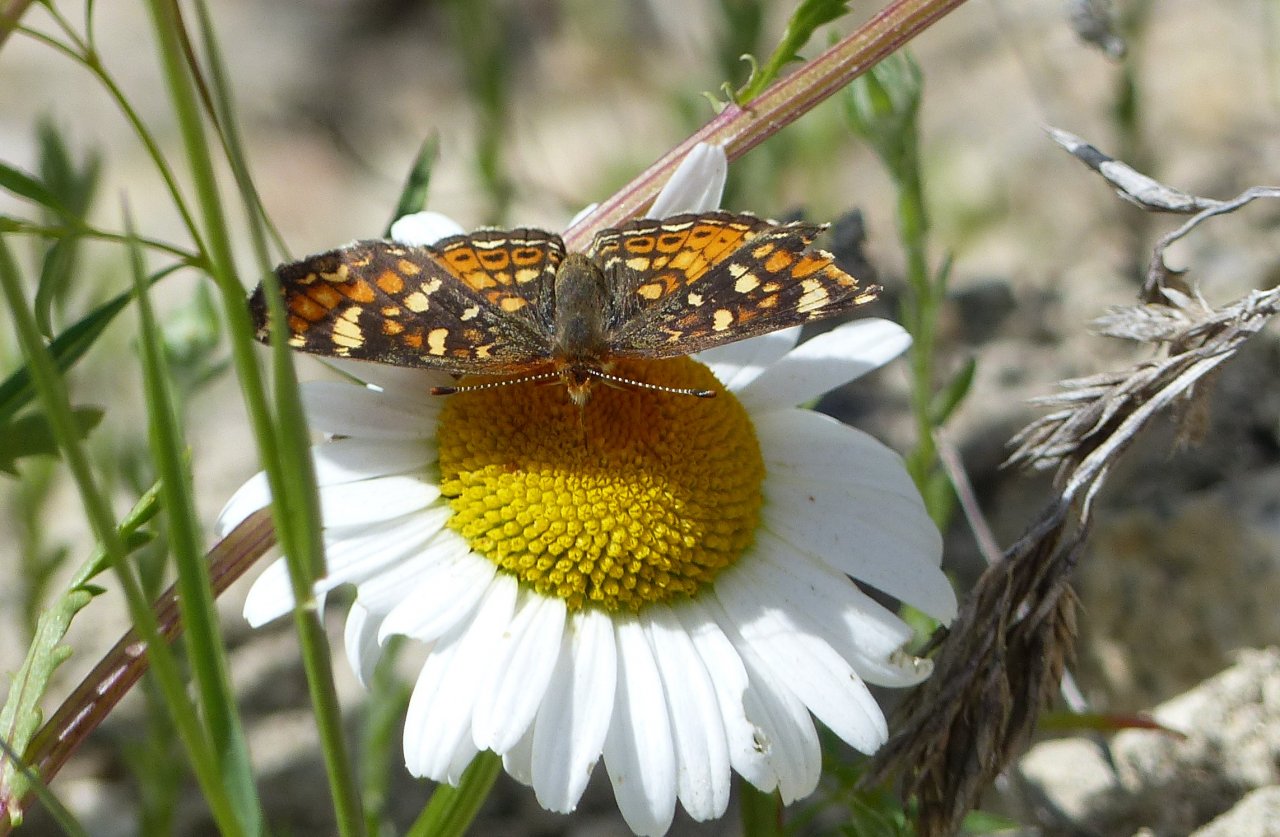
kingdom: Animalia
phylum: Arthropoda
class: Insecta
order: Lepidoptera
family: Nymphalidae
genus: Phyciodes
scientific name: Phyciodes tharos
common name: Field Crescent
